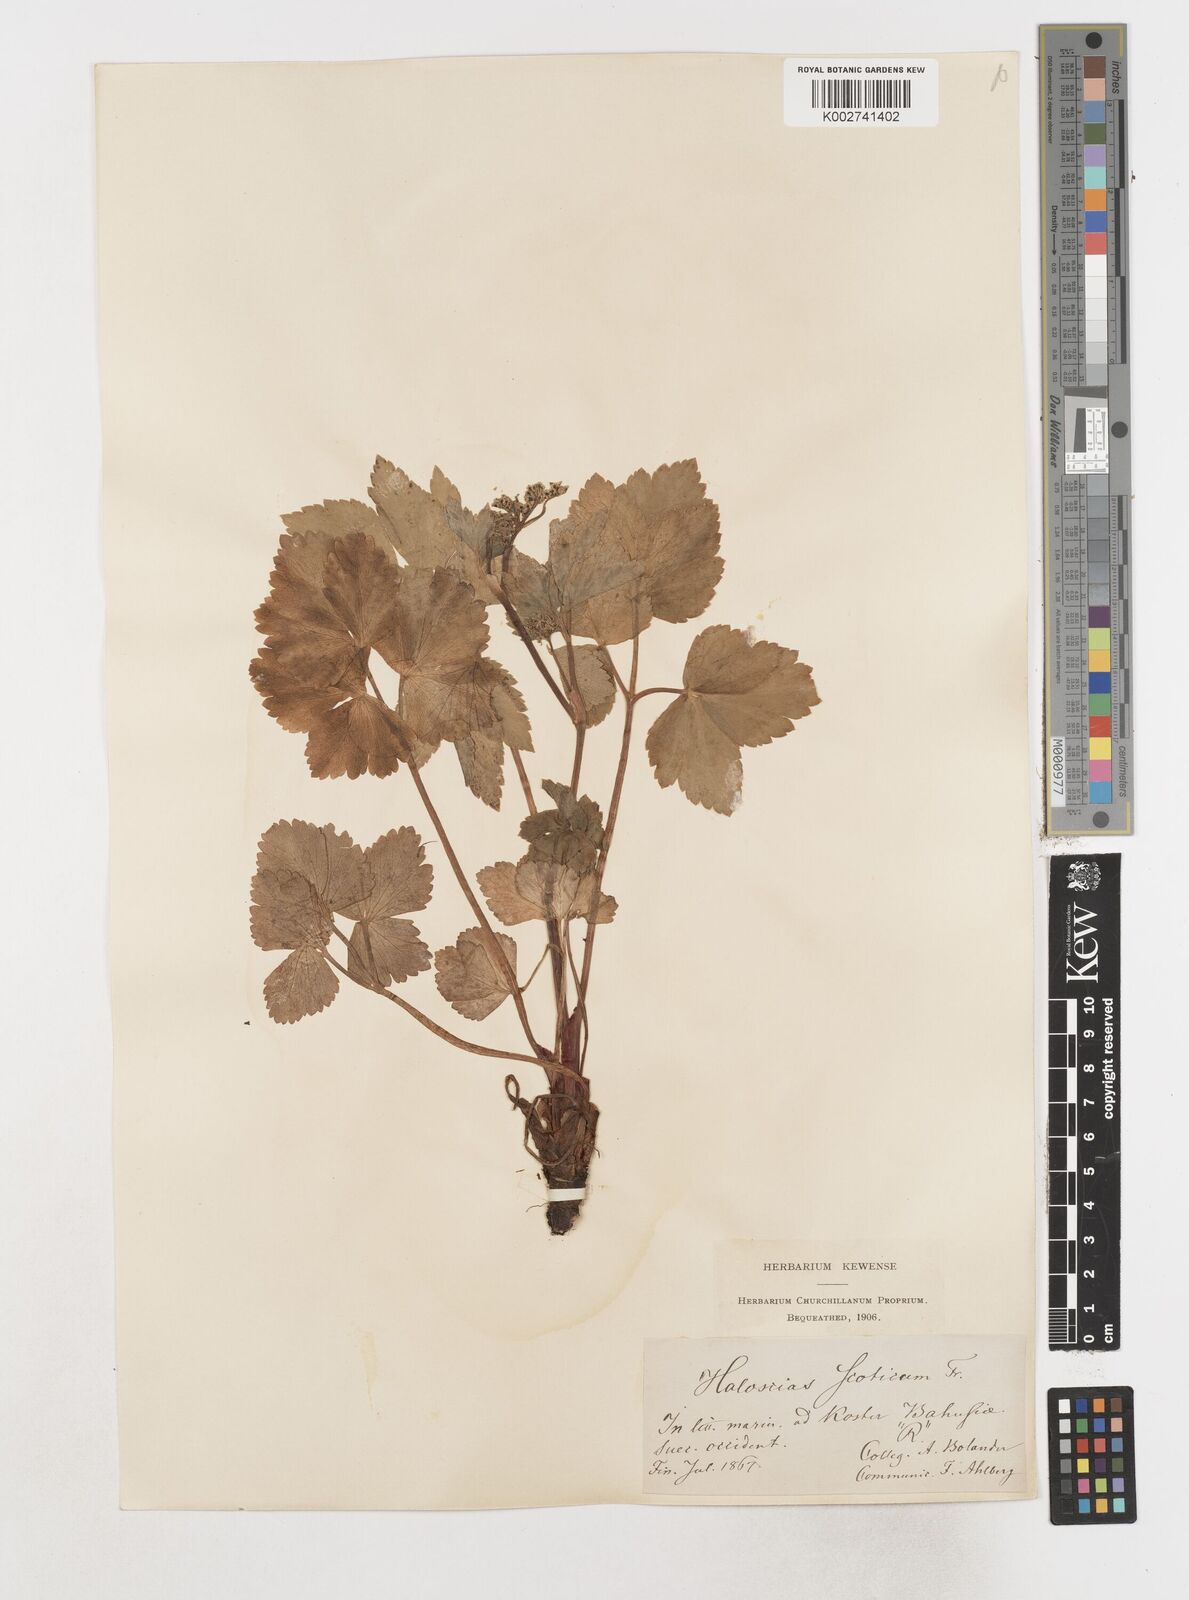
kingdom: Plantae
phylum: Tracheophyta
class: Magnoliopsida
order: Apiales
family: Apiaceae
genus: Ligusticum
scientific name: Ligusticum scothicum
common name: Beach lovage
